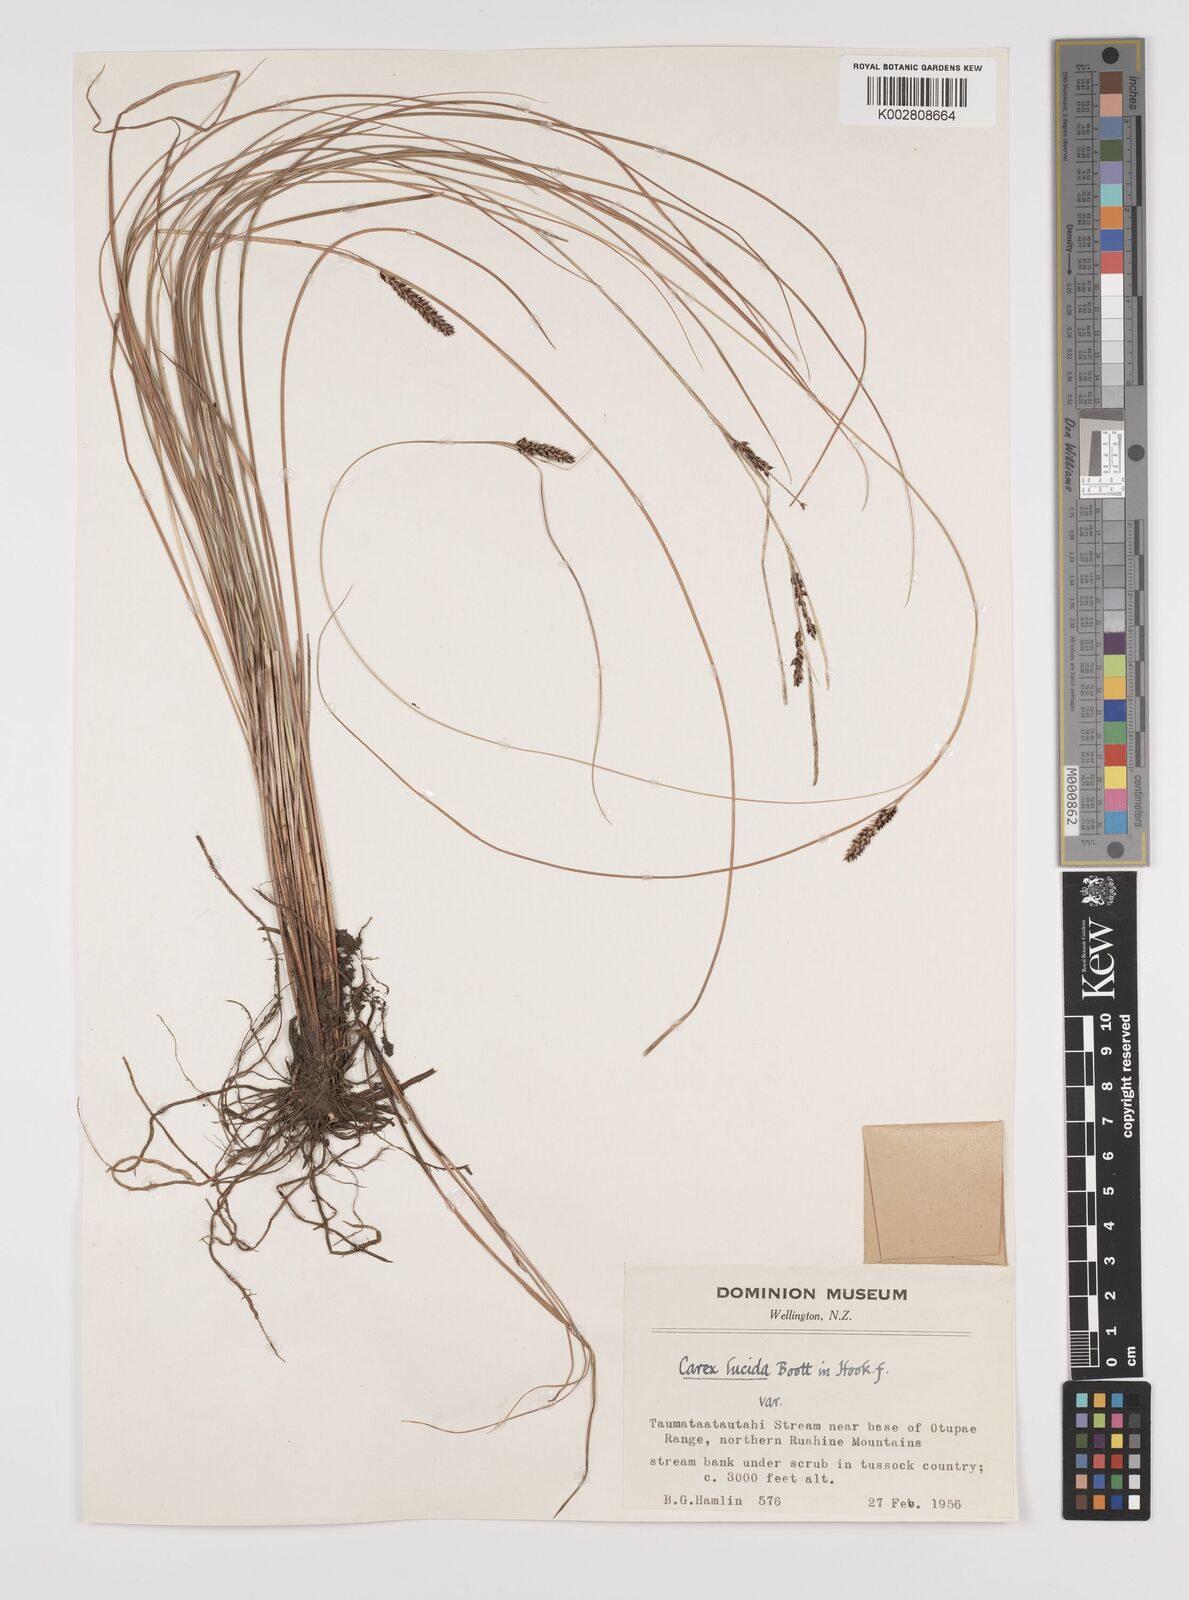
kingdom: Plantae
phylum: Tracheophyta
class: Liliopsida
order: Poales
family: Cyperaceae
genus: Carex
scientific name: Carex flagellifera
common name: Glen murray tussock
